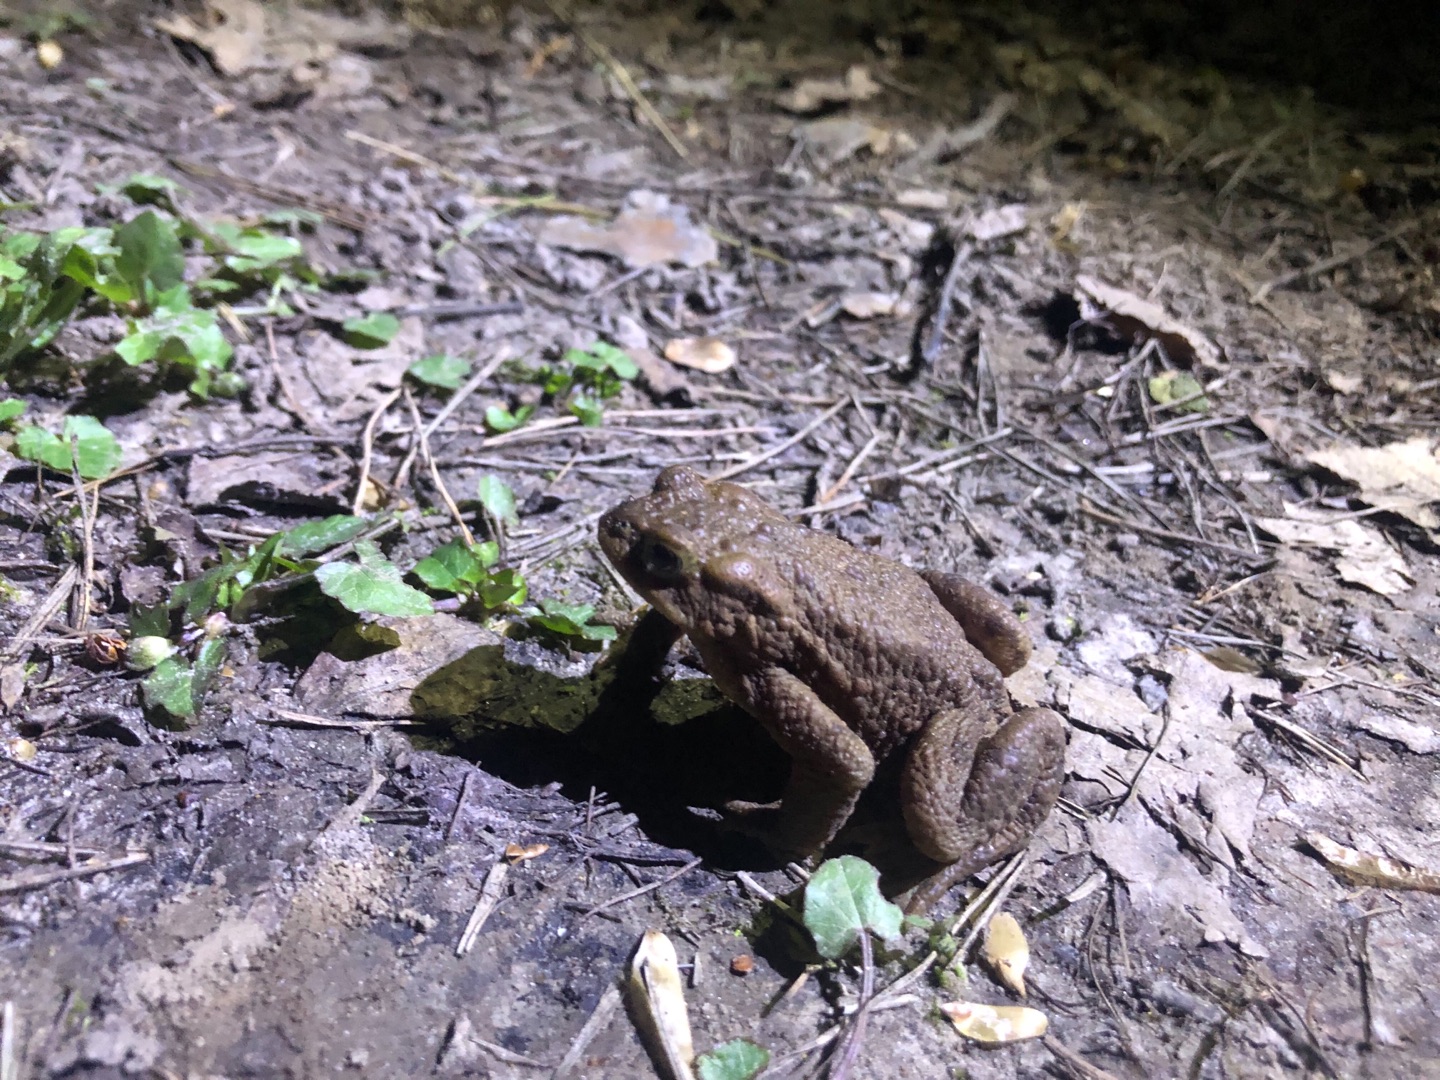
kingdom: Animalia
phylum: Chordata
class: Amphibia
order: Anura
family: Bufonidae
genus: Bufo
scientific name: Bufo bufo
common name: Skrubtudse
